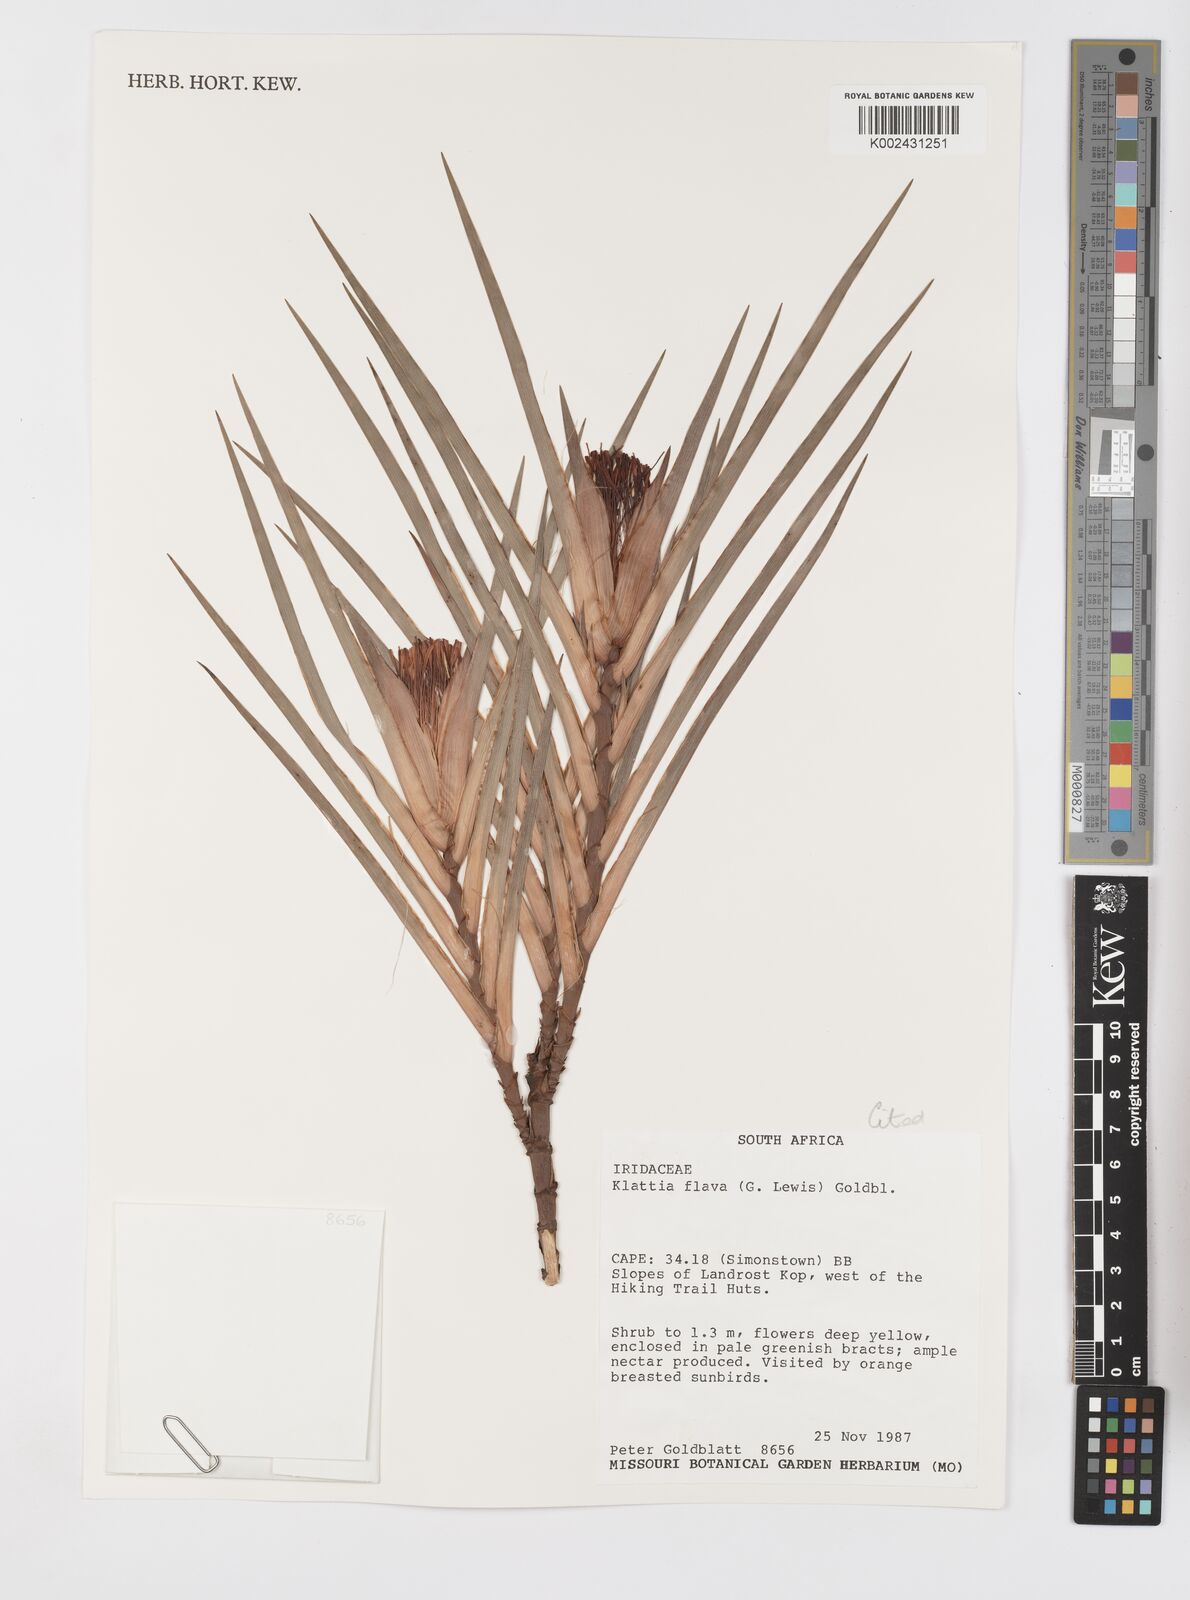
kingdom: Plantae
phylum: Tracheophyta
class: Liliopsida
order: Asparagales
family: Iridaceae
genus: Klattia
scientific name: Klattia flava
